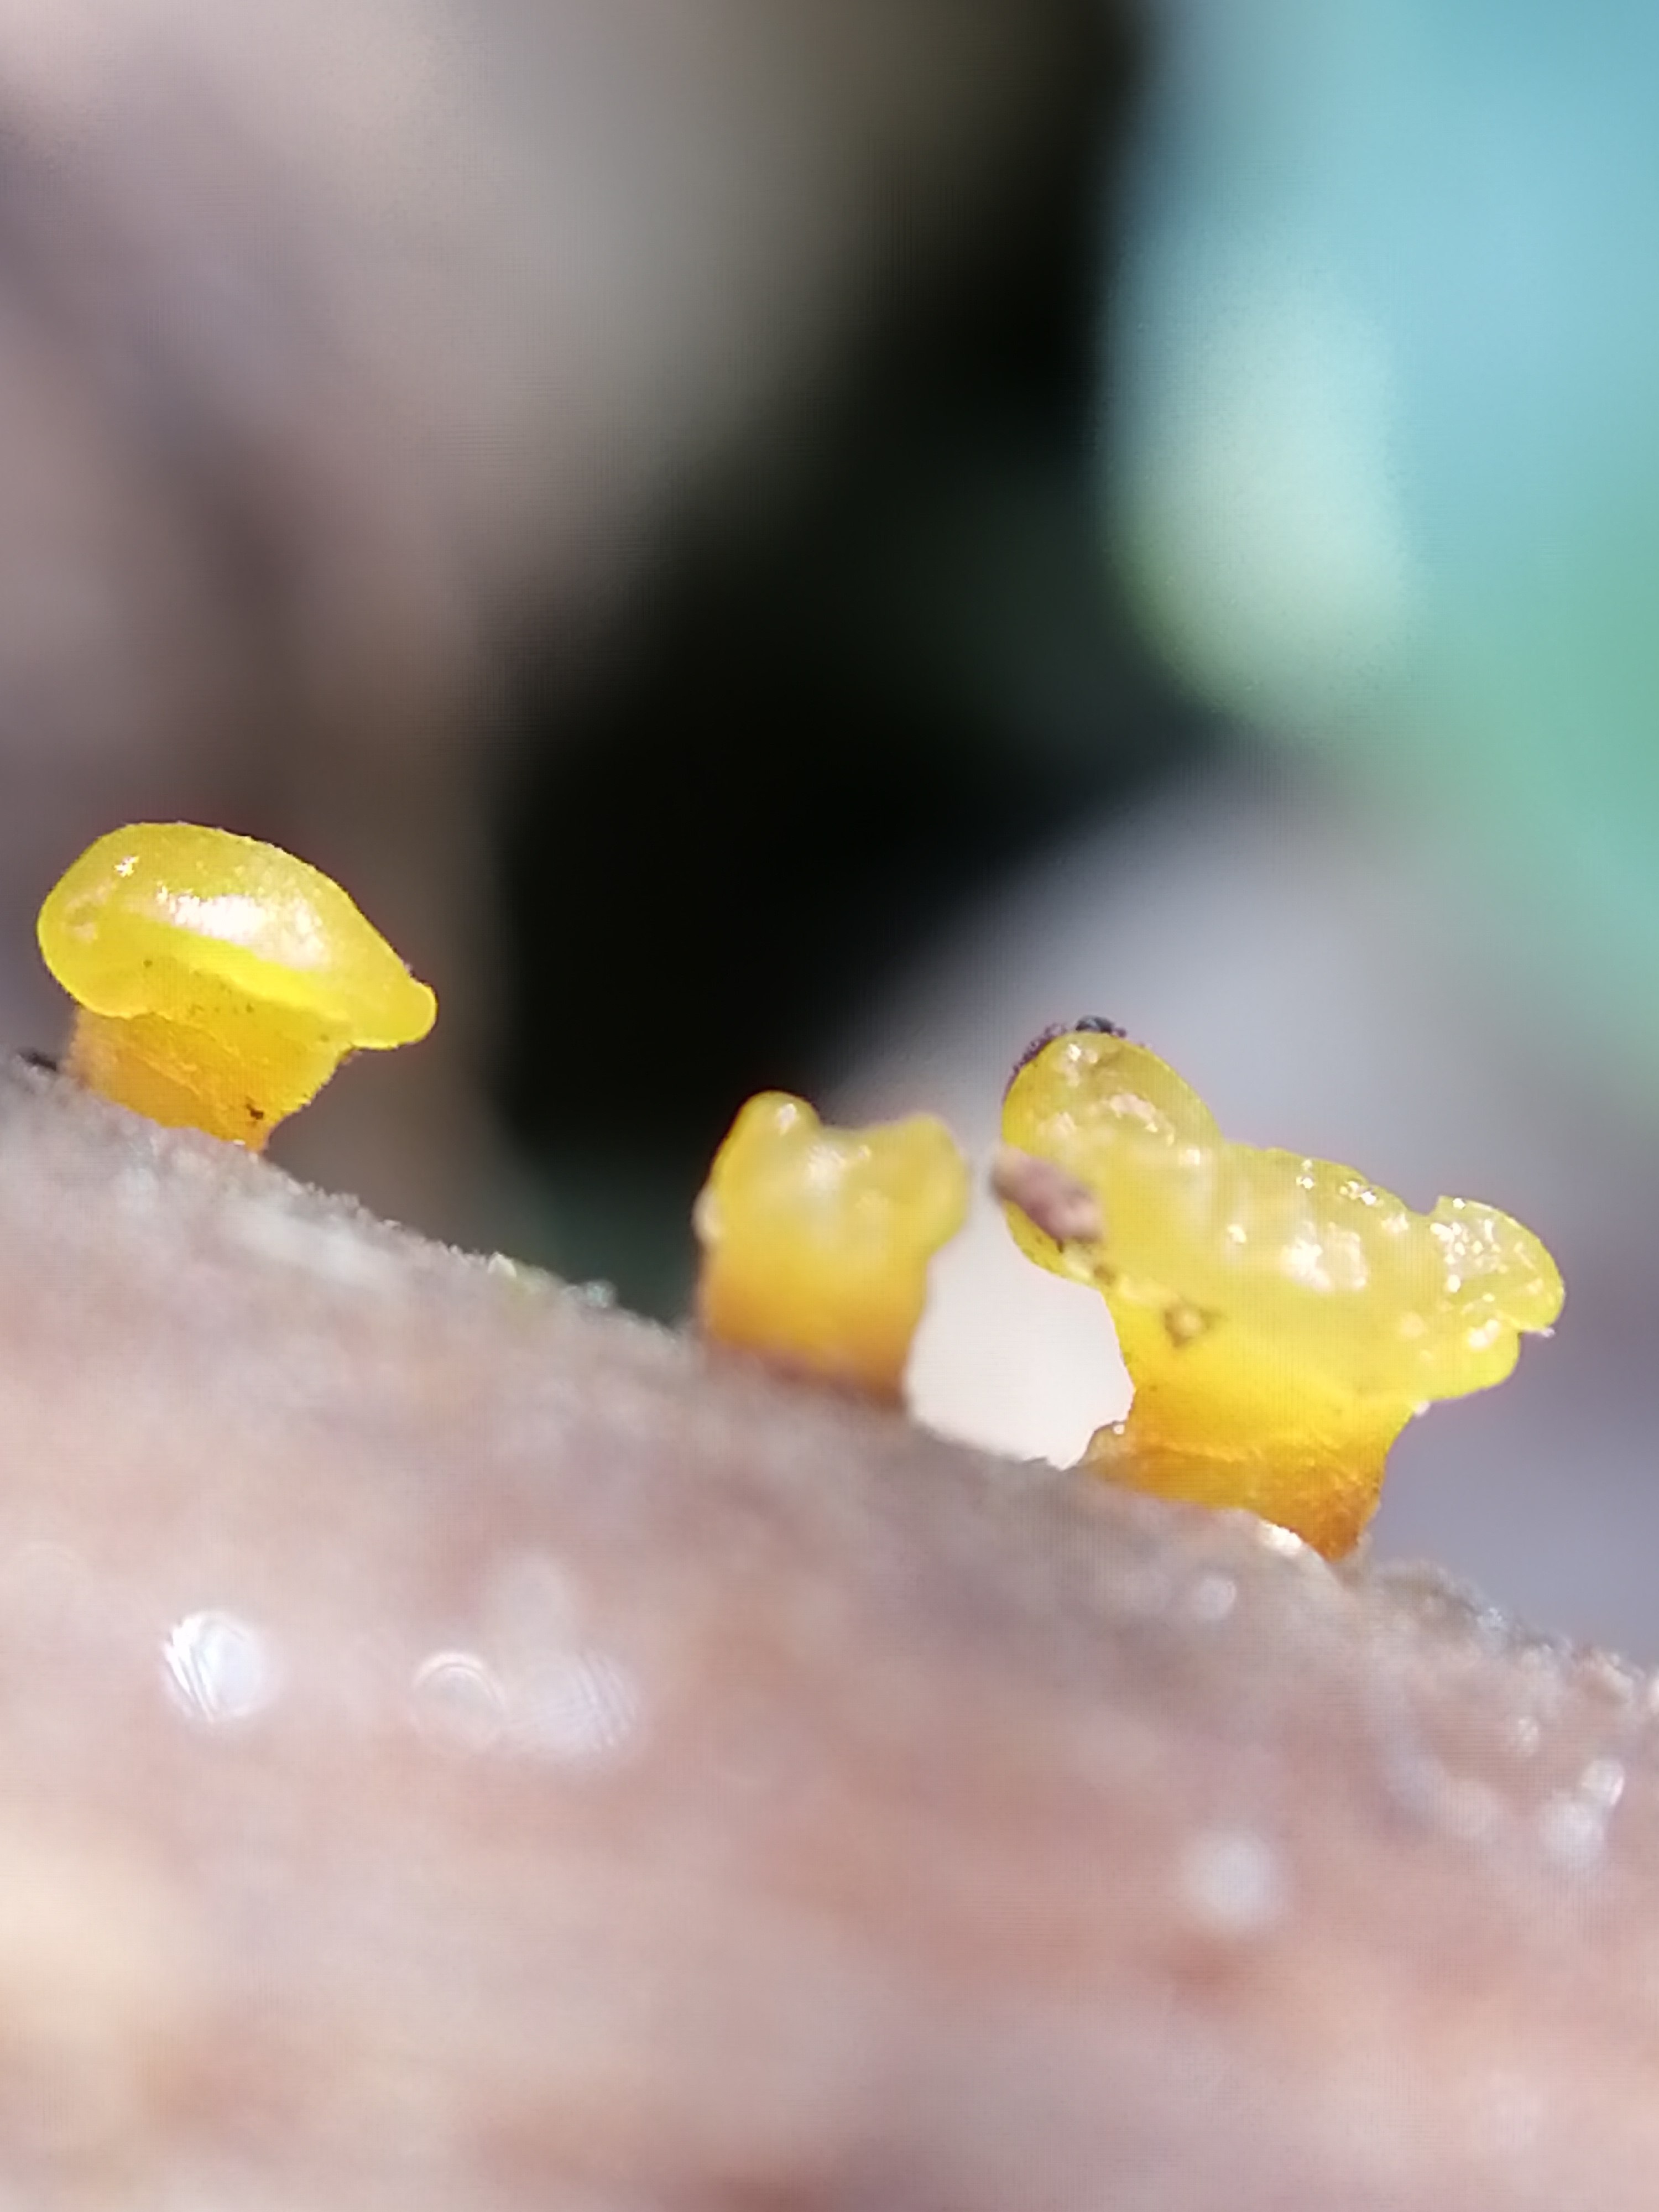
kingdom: Fungi
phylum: Basidiomycota
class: Dacrymycetes
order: Dacrymycetales
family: Dacrymycetaceae
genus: Dacrymyces
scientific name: Dacrymyces capitatus
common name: stilket tåresvamp
